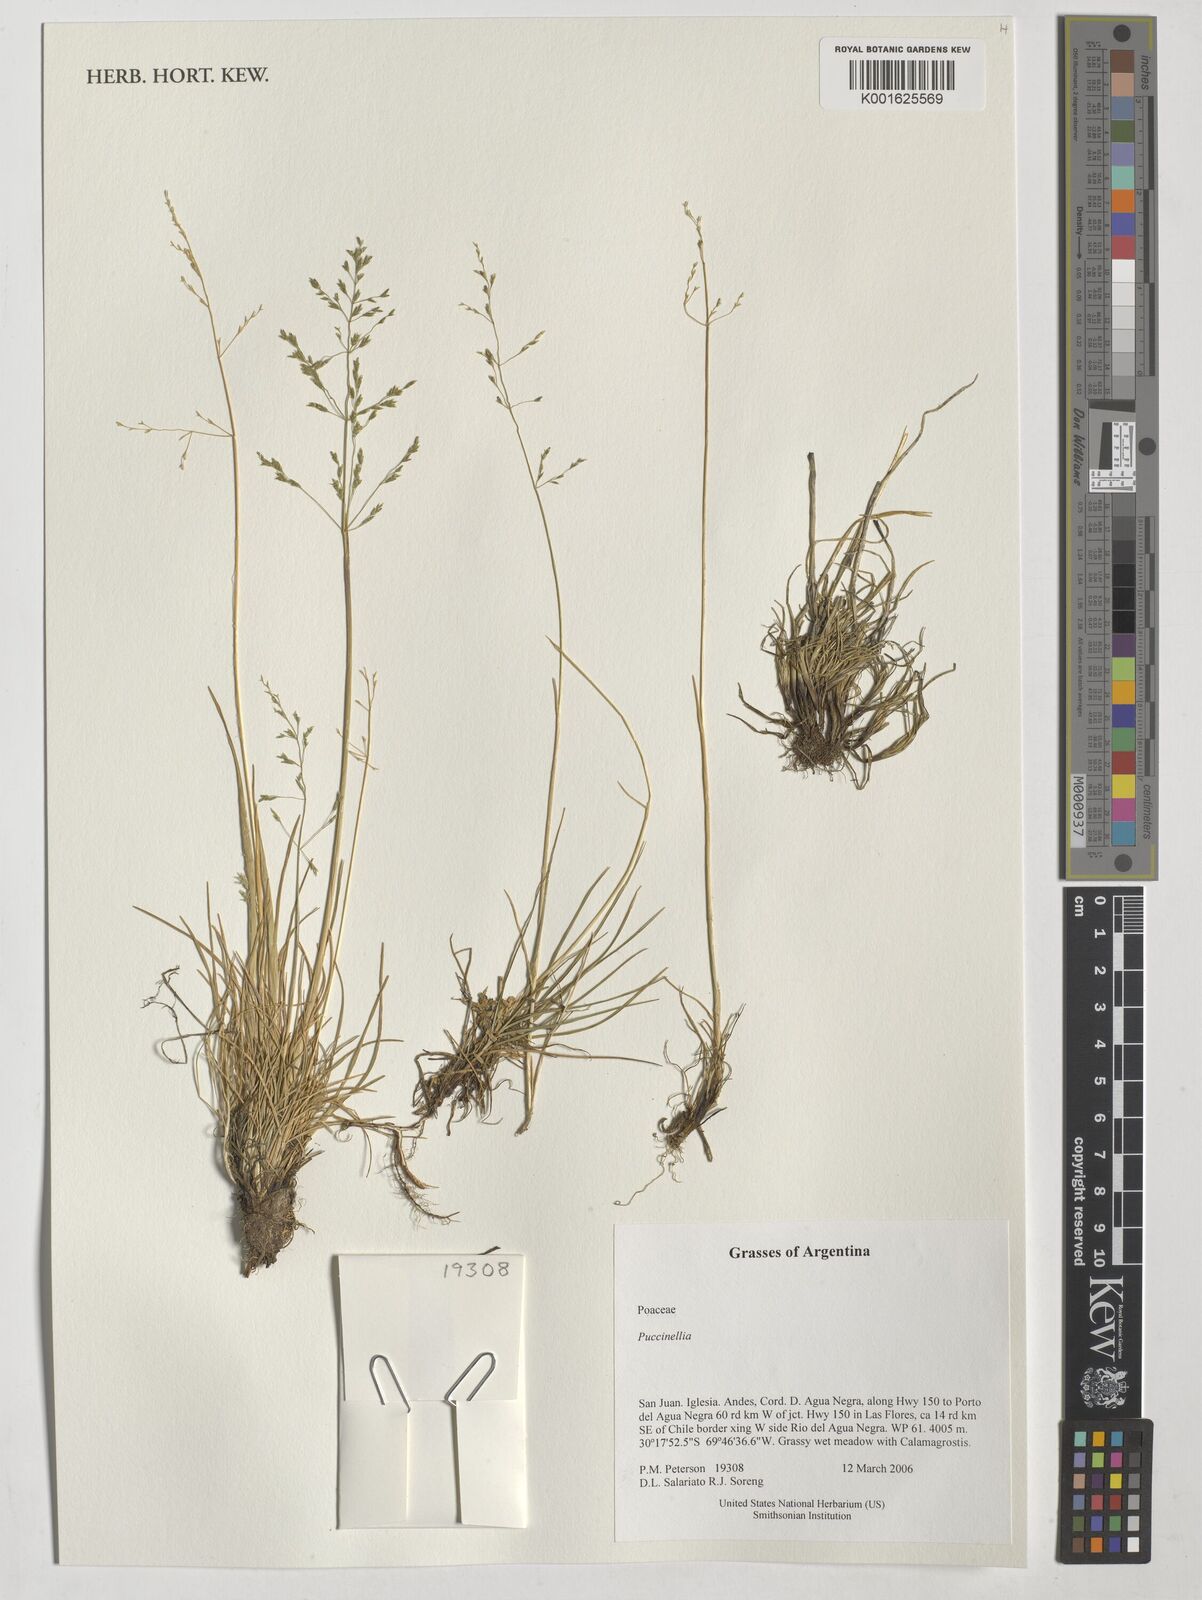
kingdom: Plantae
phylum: Tracheophyta
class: Liliopsida
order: Poales
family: Poaceae
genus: Puccinellia
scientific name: Puccinellia
